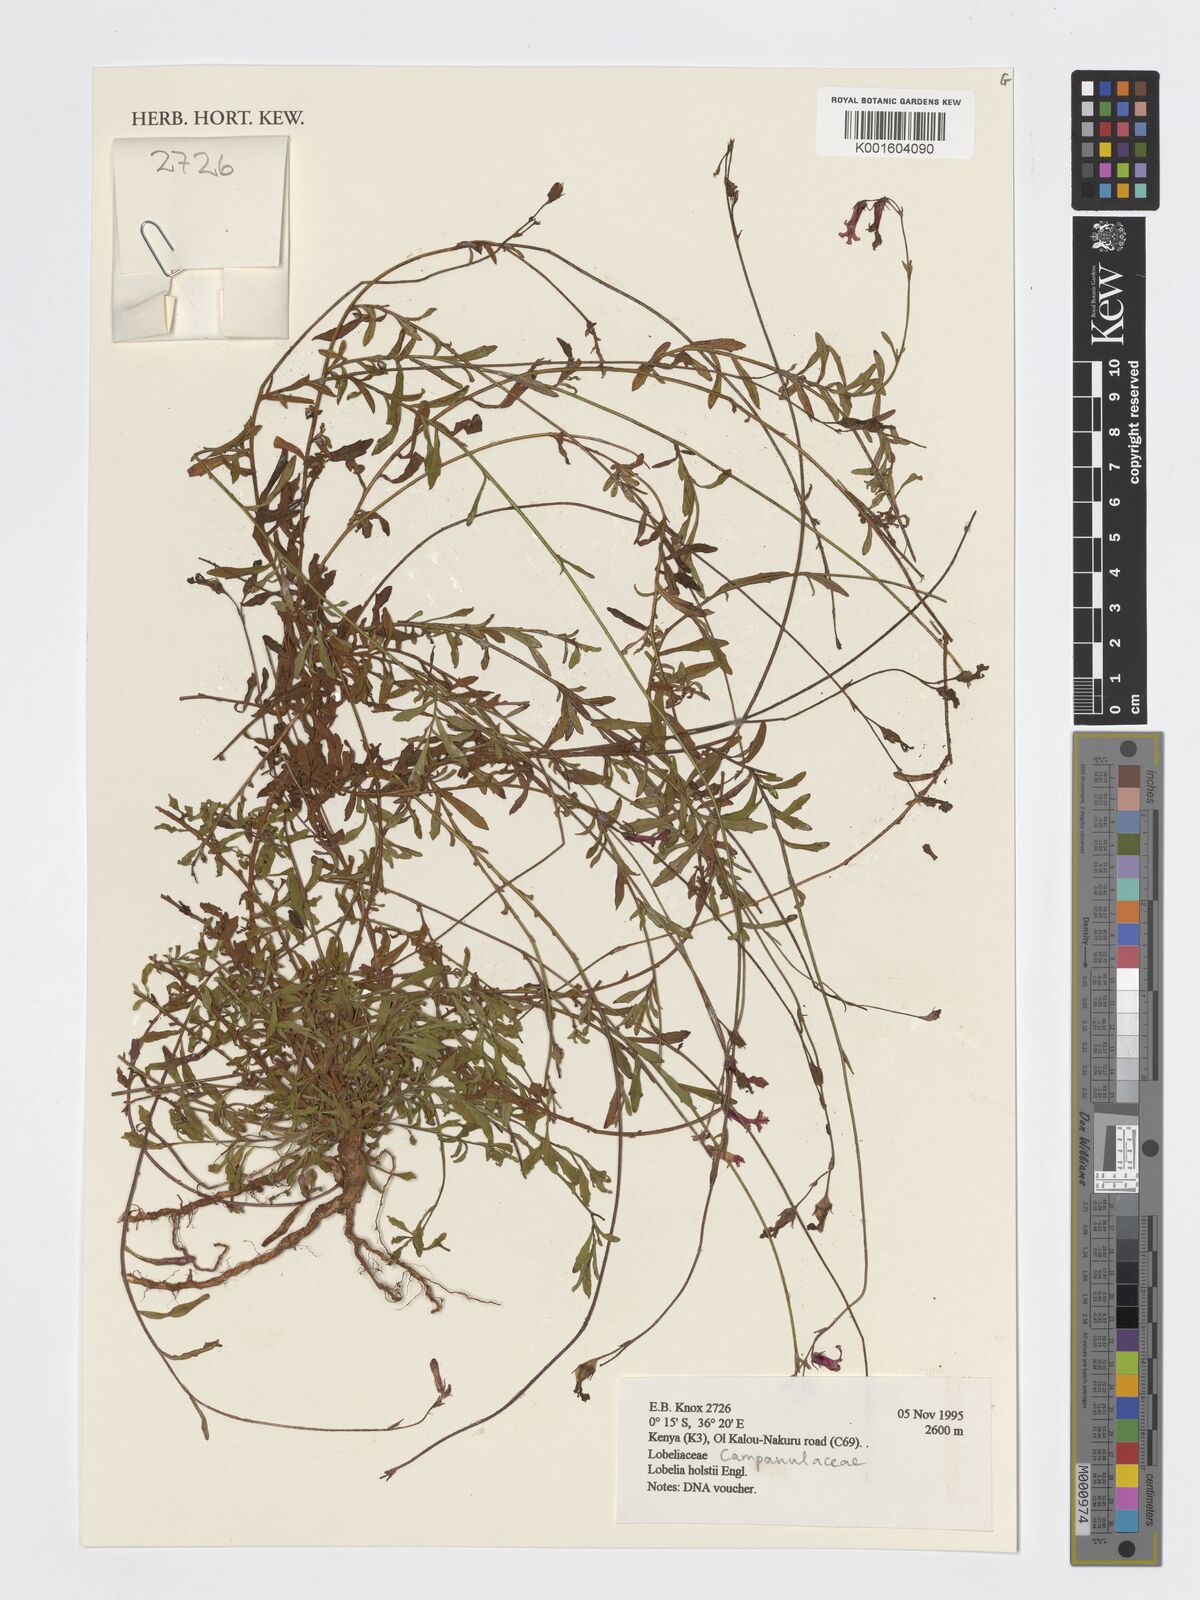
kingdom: Plantae
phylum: Tracheophyta
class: Magnoliopsida
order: Asterales
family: Campanulaceae
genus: Lobelia
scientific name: Lobelia holstii
